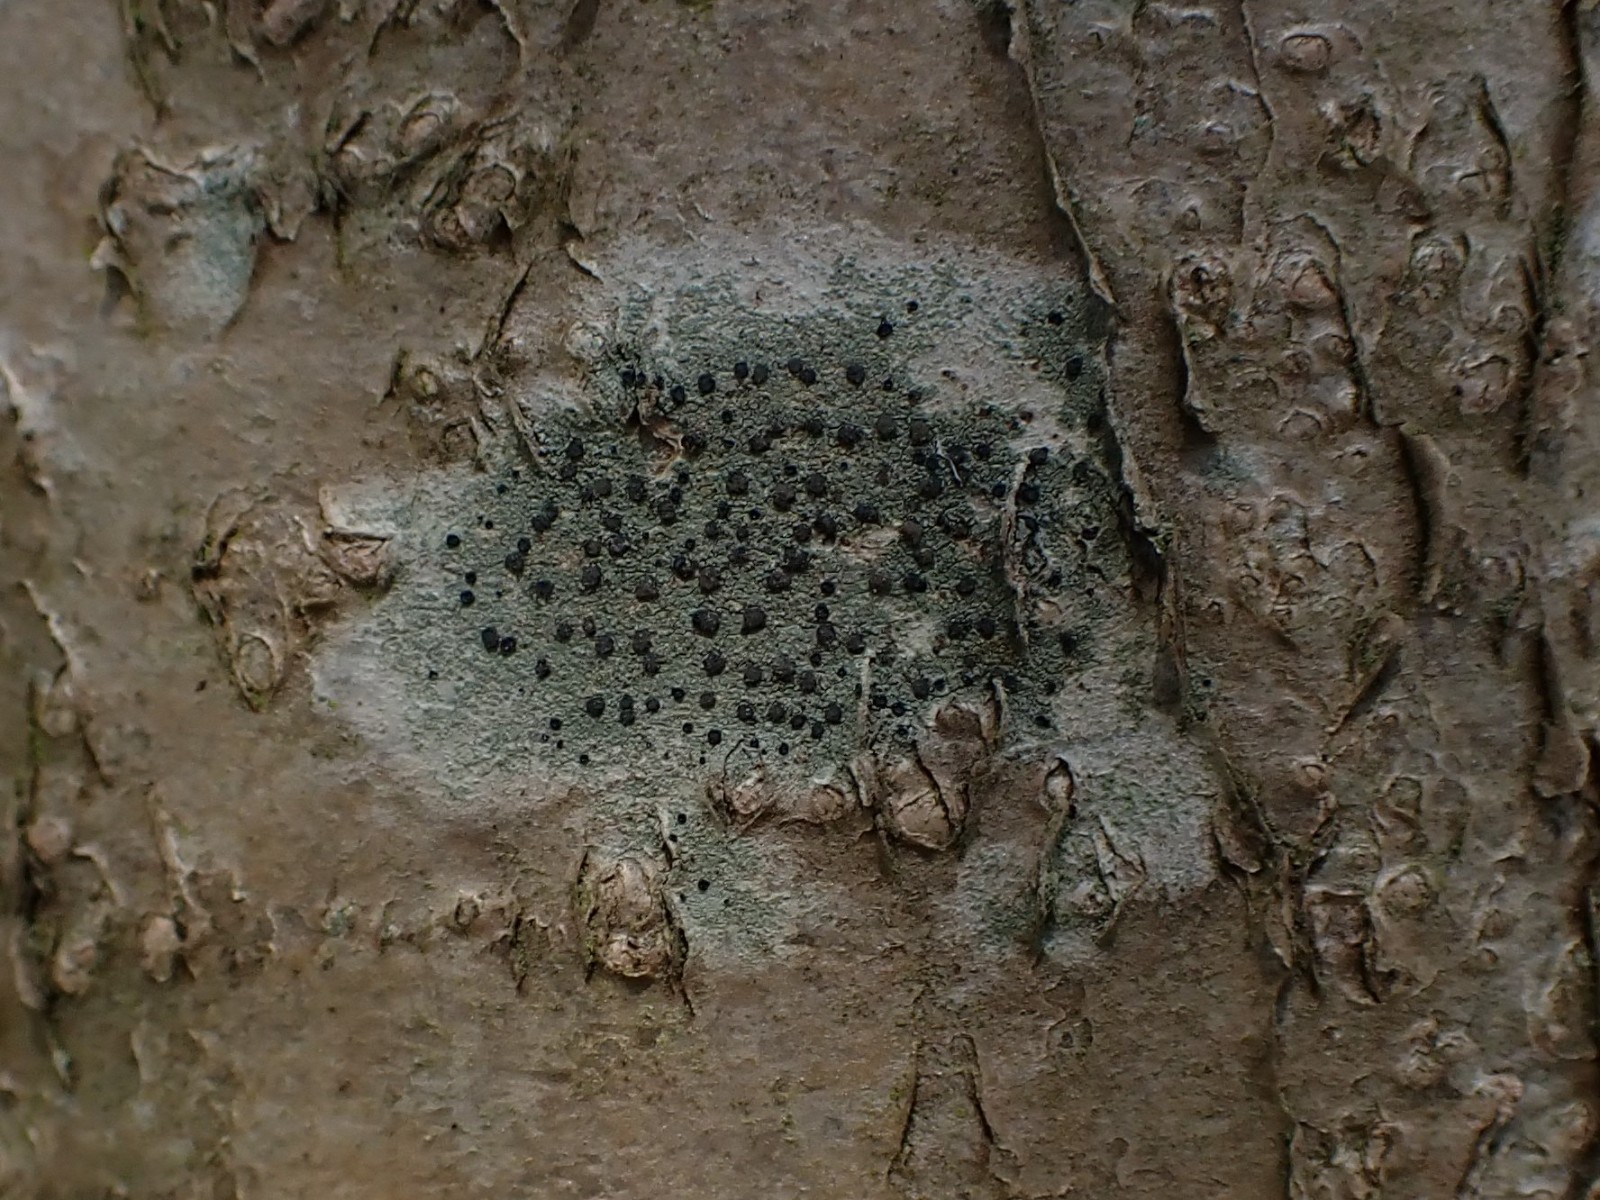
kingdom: Fungi
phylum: Ascomycota
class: Lecanoromycetes
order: Lecanorales
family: Lecanoraceae
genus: Lecidella
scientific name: Lecidella elaeochroma
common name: grågrøn skivelav
